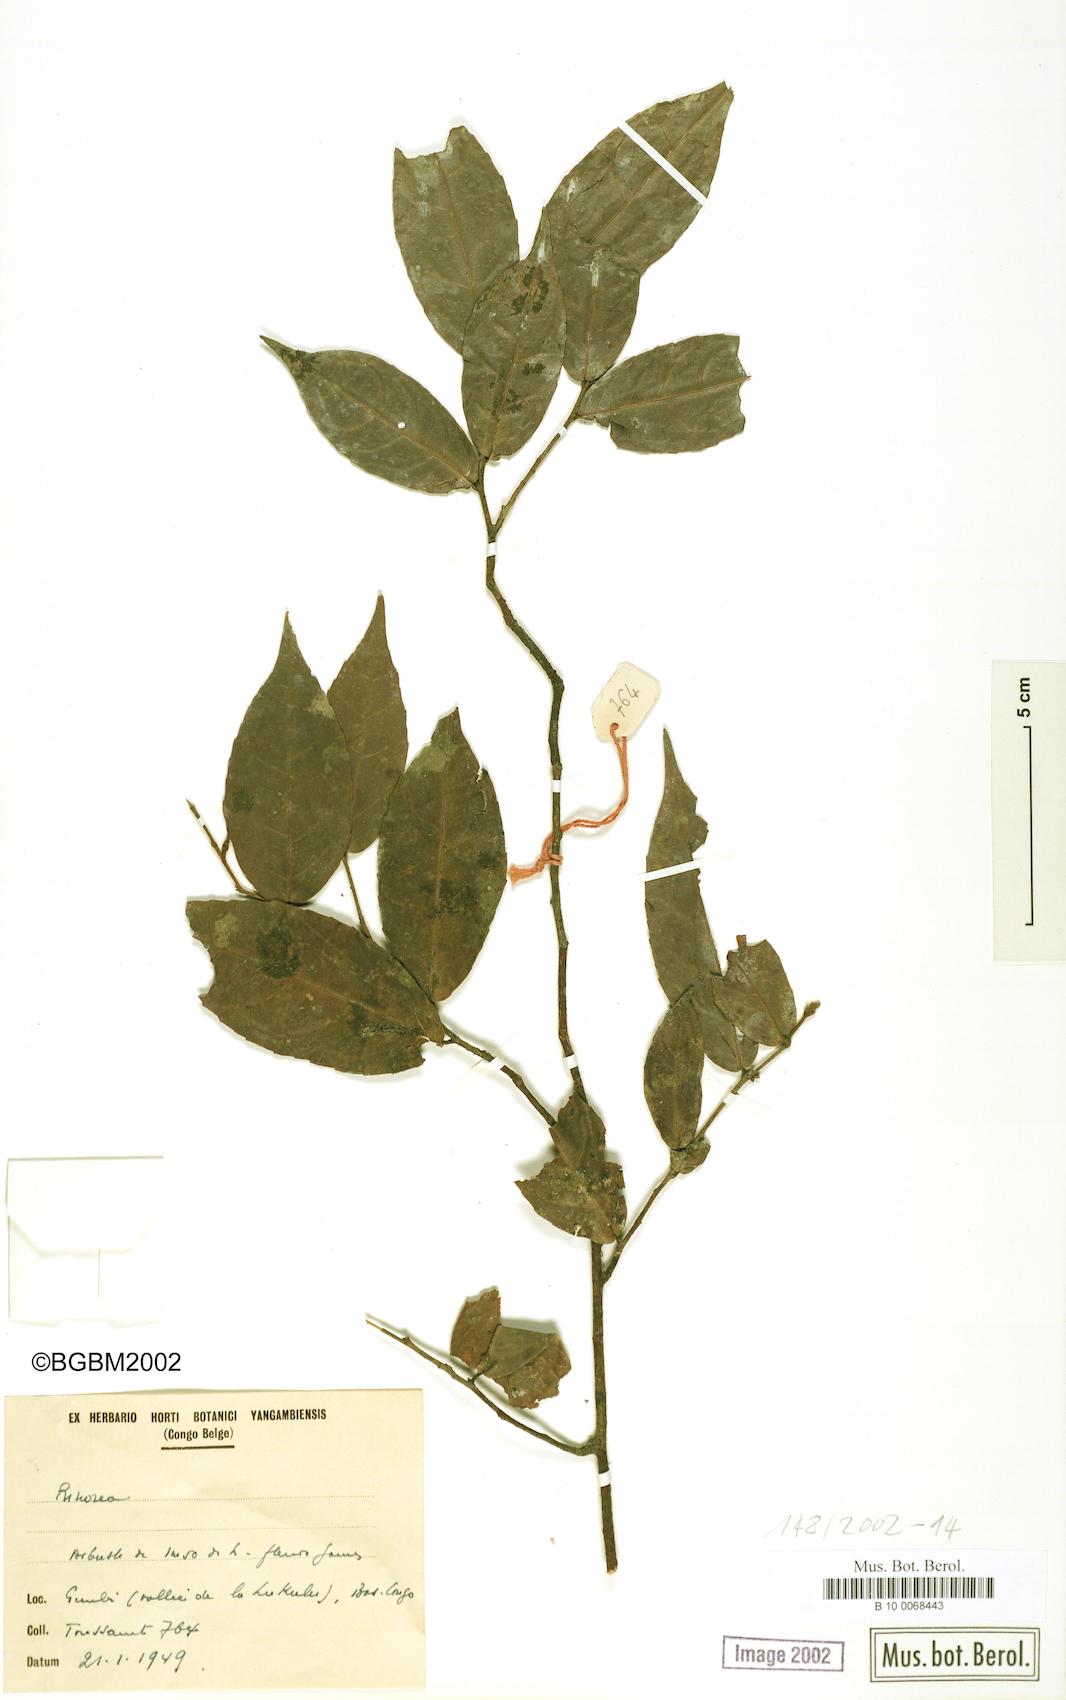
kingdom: Plantae
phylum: Tracheophyta
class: Magnoliopsida
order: Malpighiales
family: Violaceae
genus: Rinorea
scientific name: Rinorea
